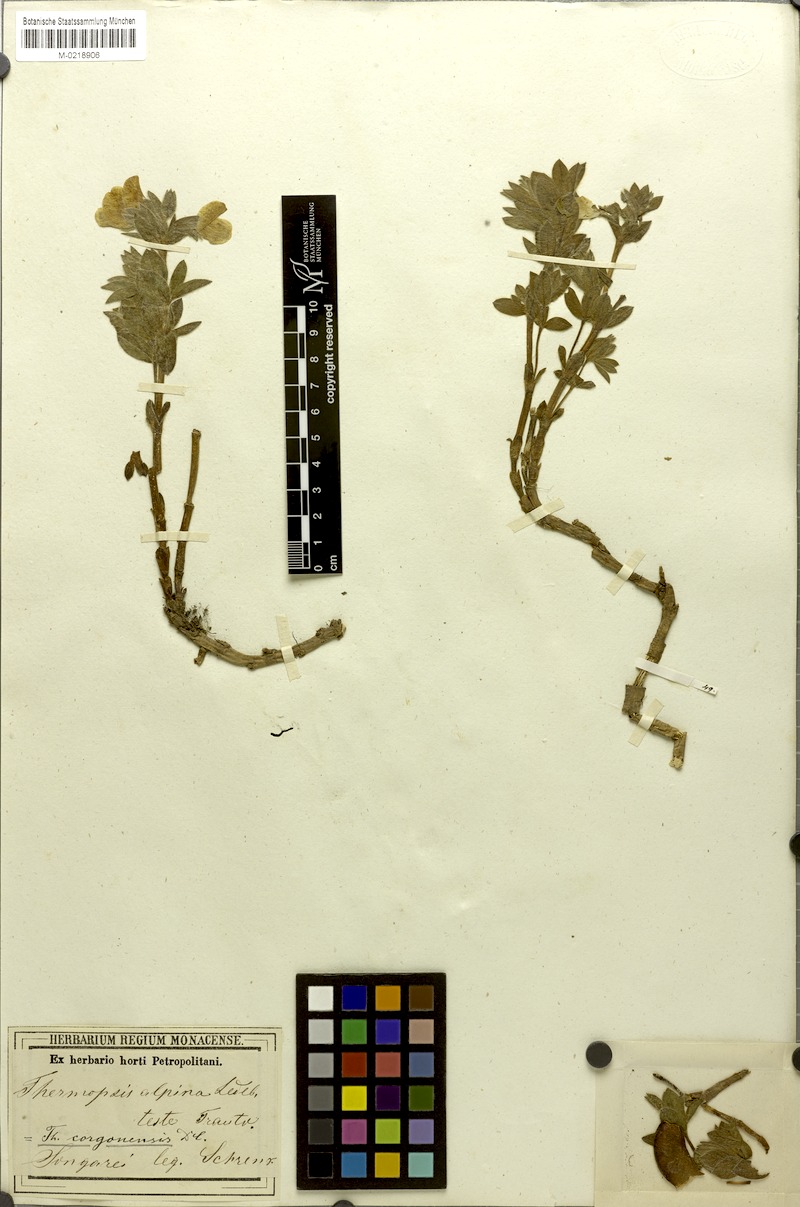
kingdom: Plantae
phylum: Tracheophyta
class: Magnoliopsida
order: Fabales
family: Fabaceae
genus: Thermopsis
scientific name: Thermopsis alpina
